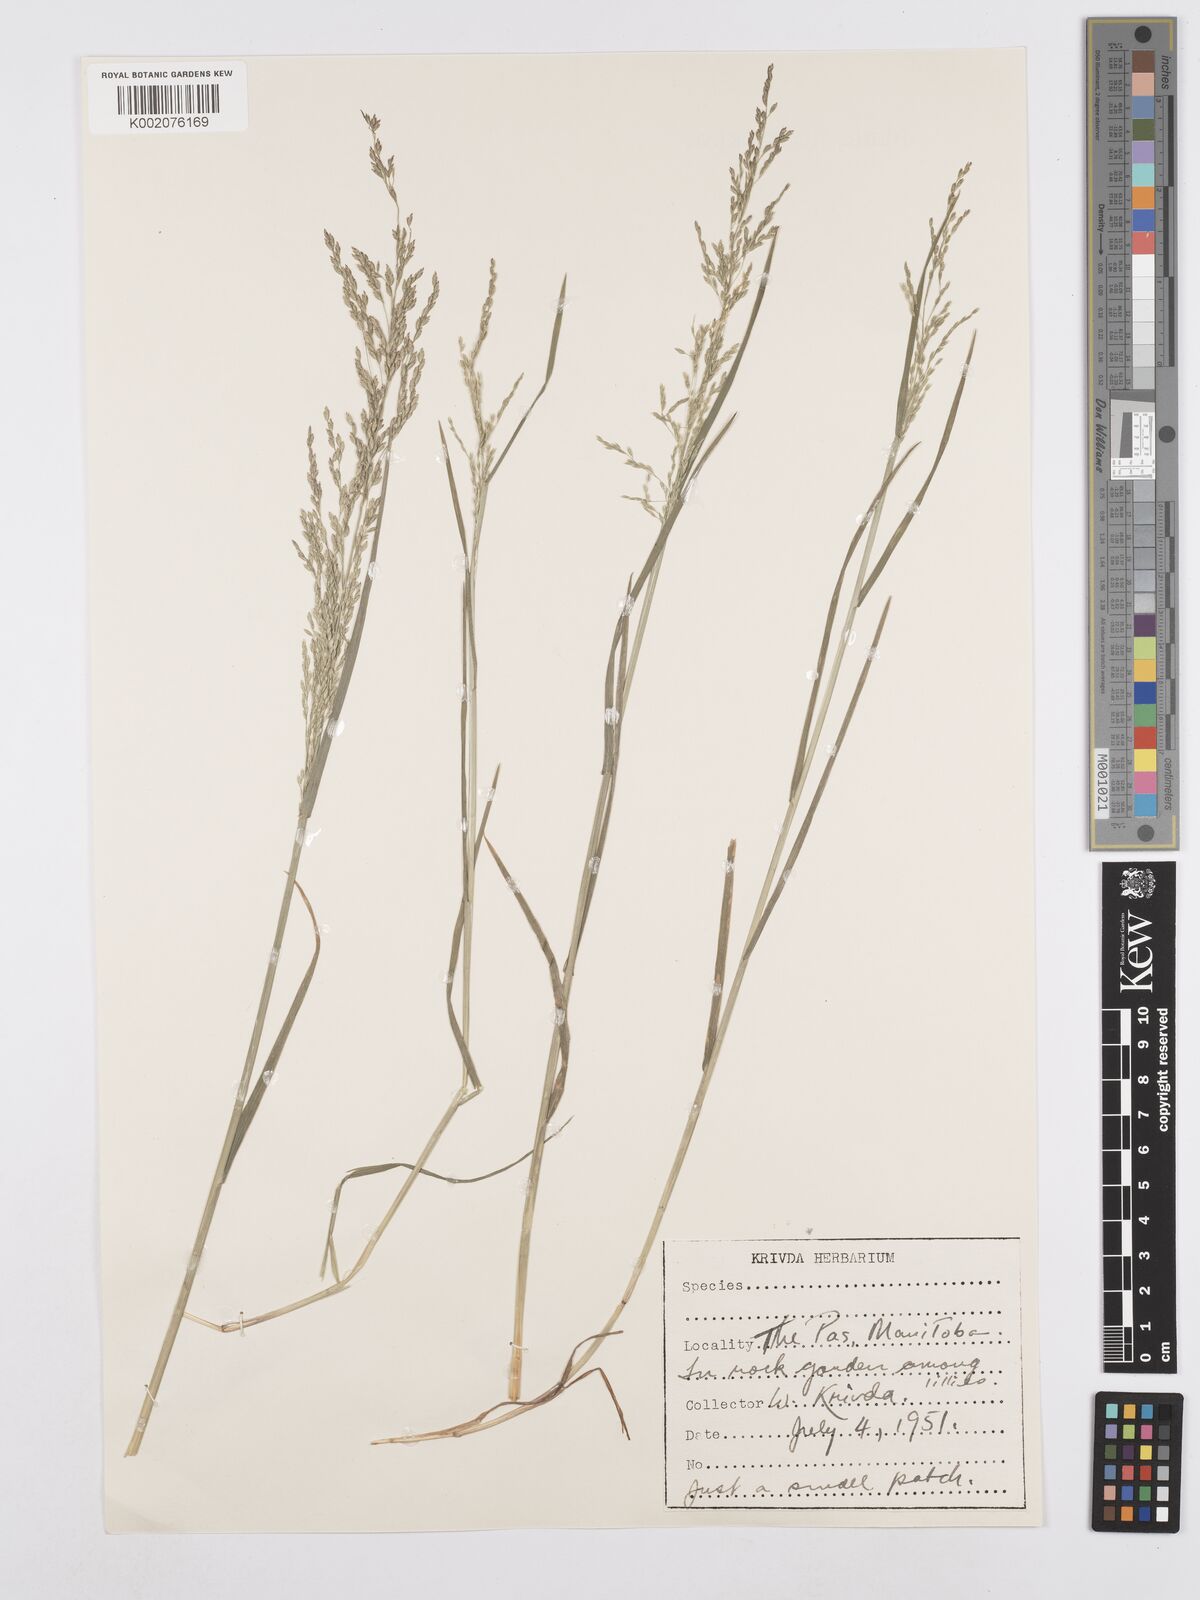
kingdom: Plantae
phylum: Tracheophyta
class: Liliopsida
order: Poales
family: Poaceae
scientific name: Poaceae
